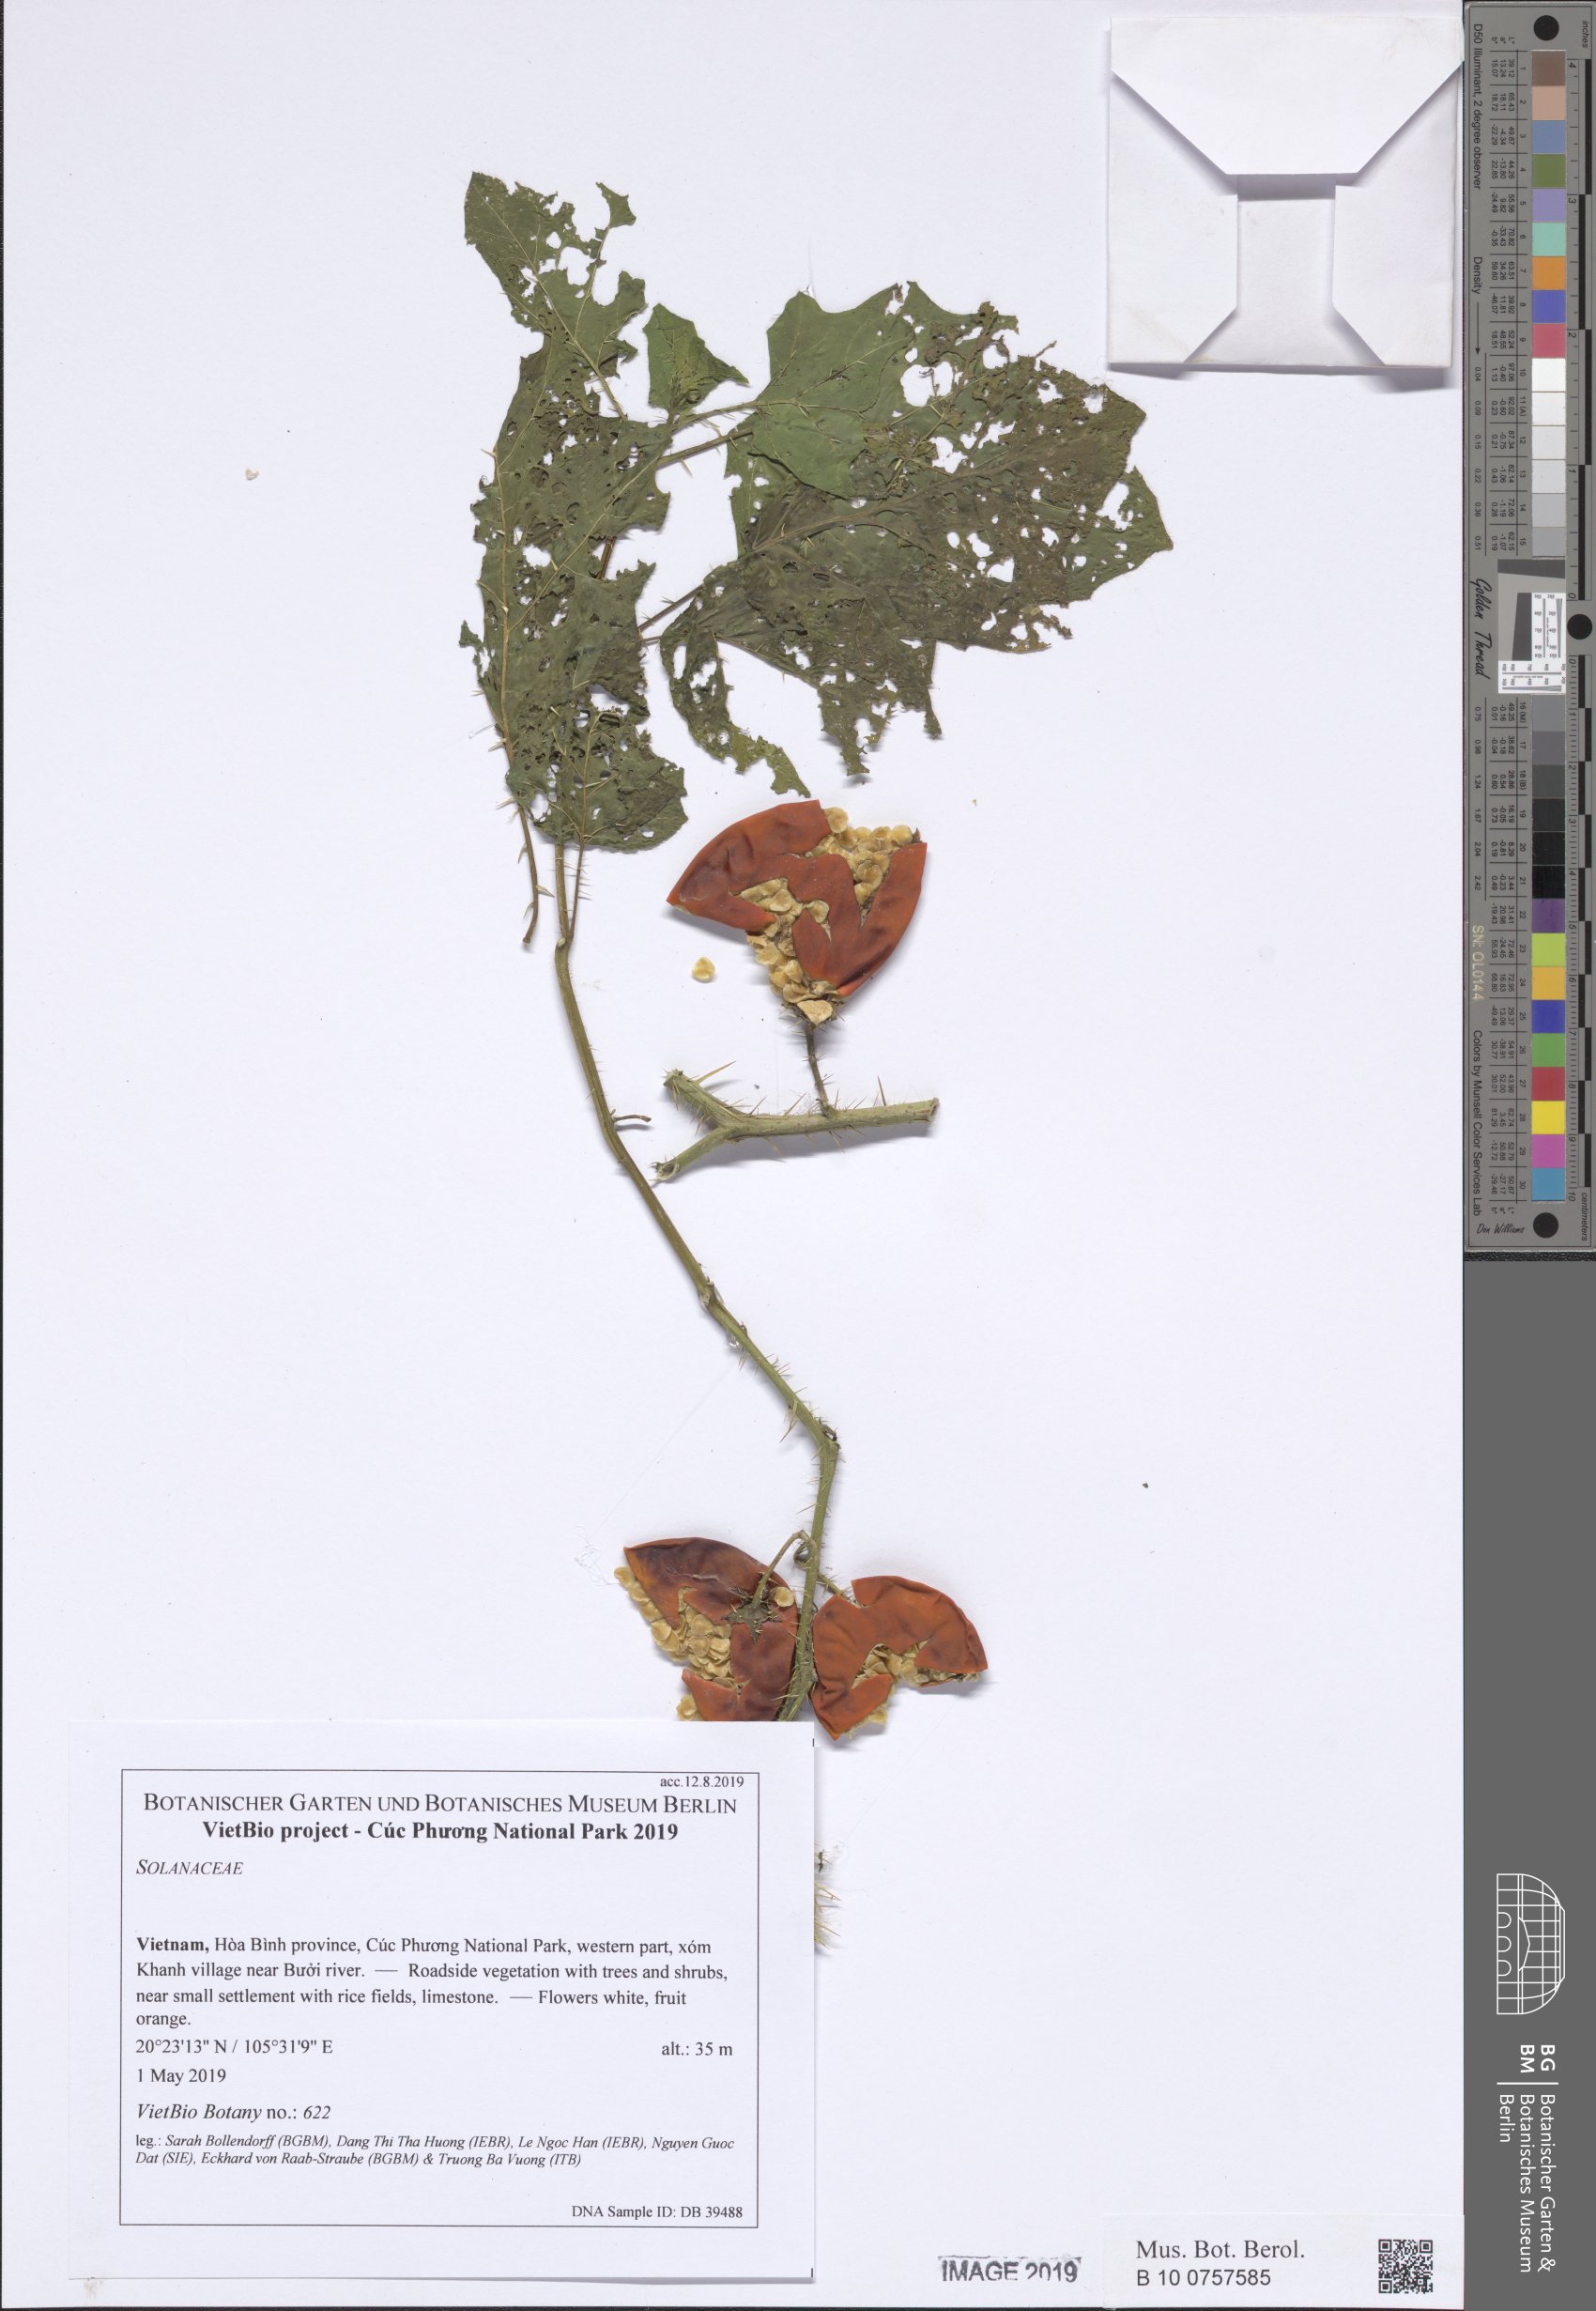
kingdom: Plantae
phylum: Tracheophyta
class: Magnoliopsida
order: Solanales
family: Solanaceae
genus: Solanum
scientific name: Solanum incanum
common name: Bitter apple
